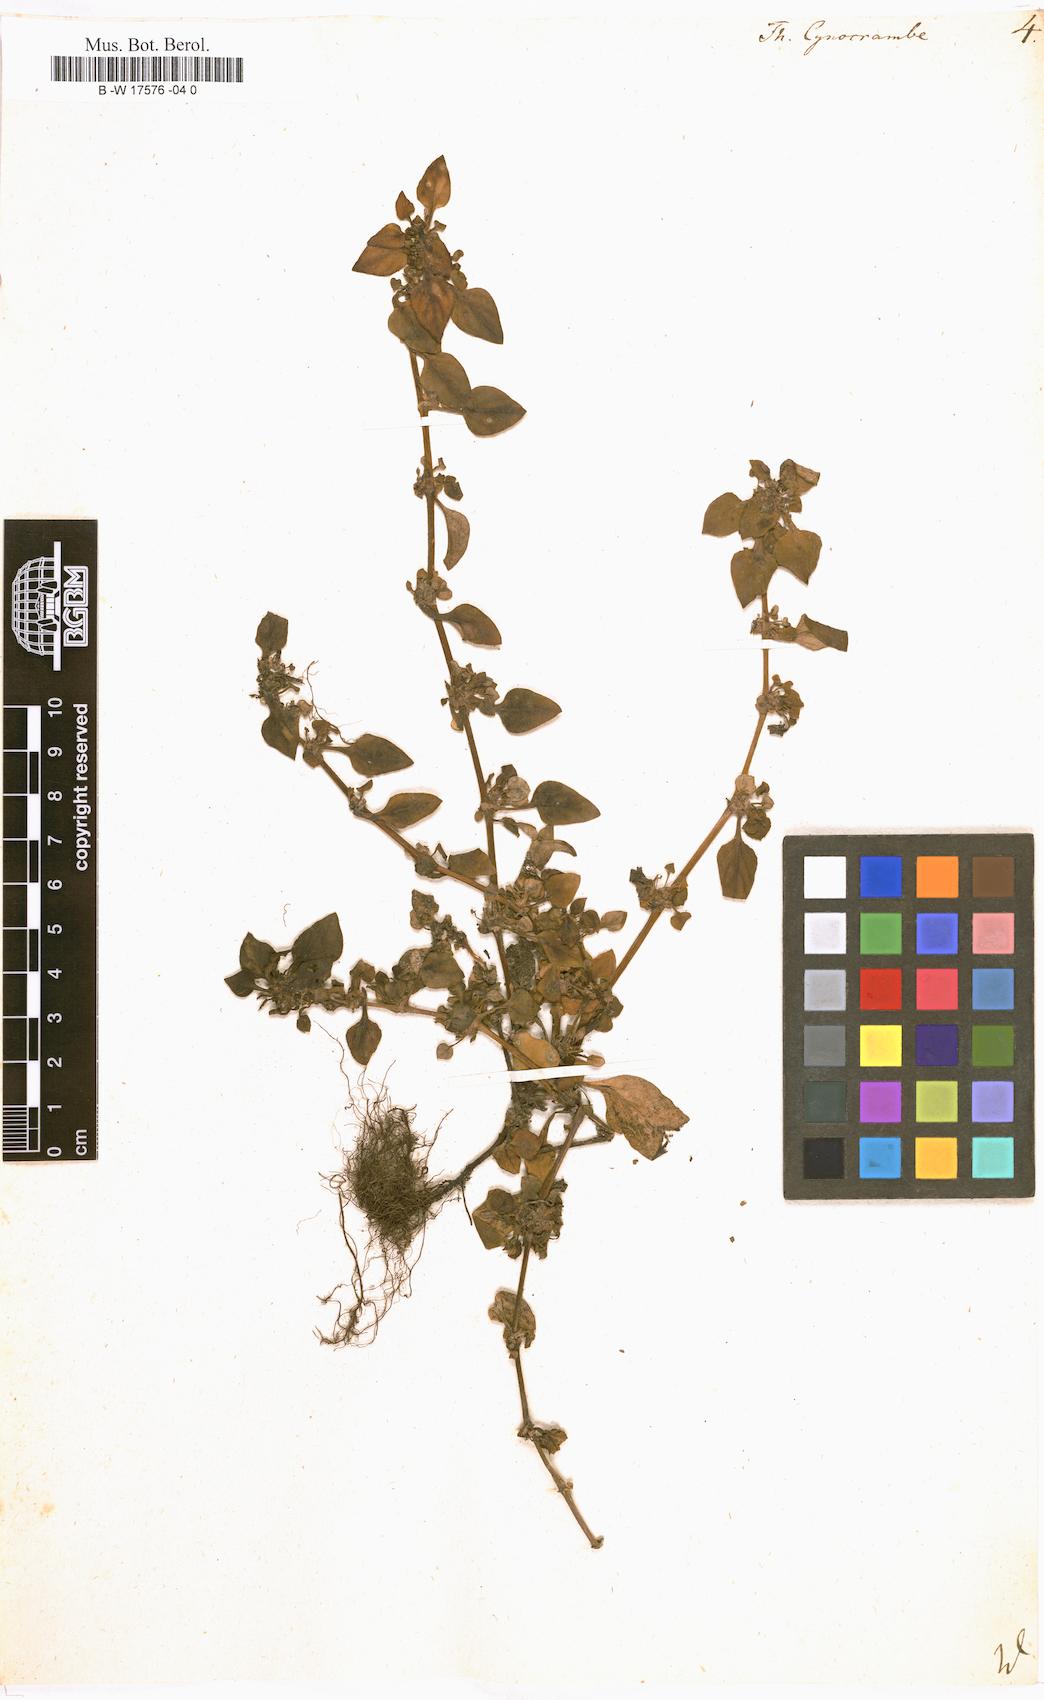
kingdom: Plantae
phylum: Tracheophyta
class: Magnoliopsida
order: Gentianales
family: Rubiaceae
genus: Theligonum
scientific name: Theligonum cynocrambe
